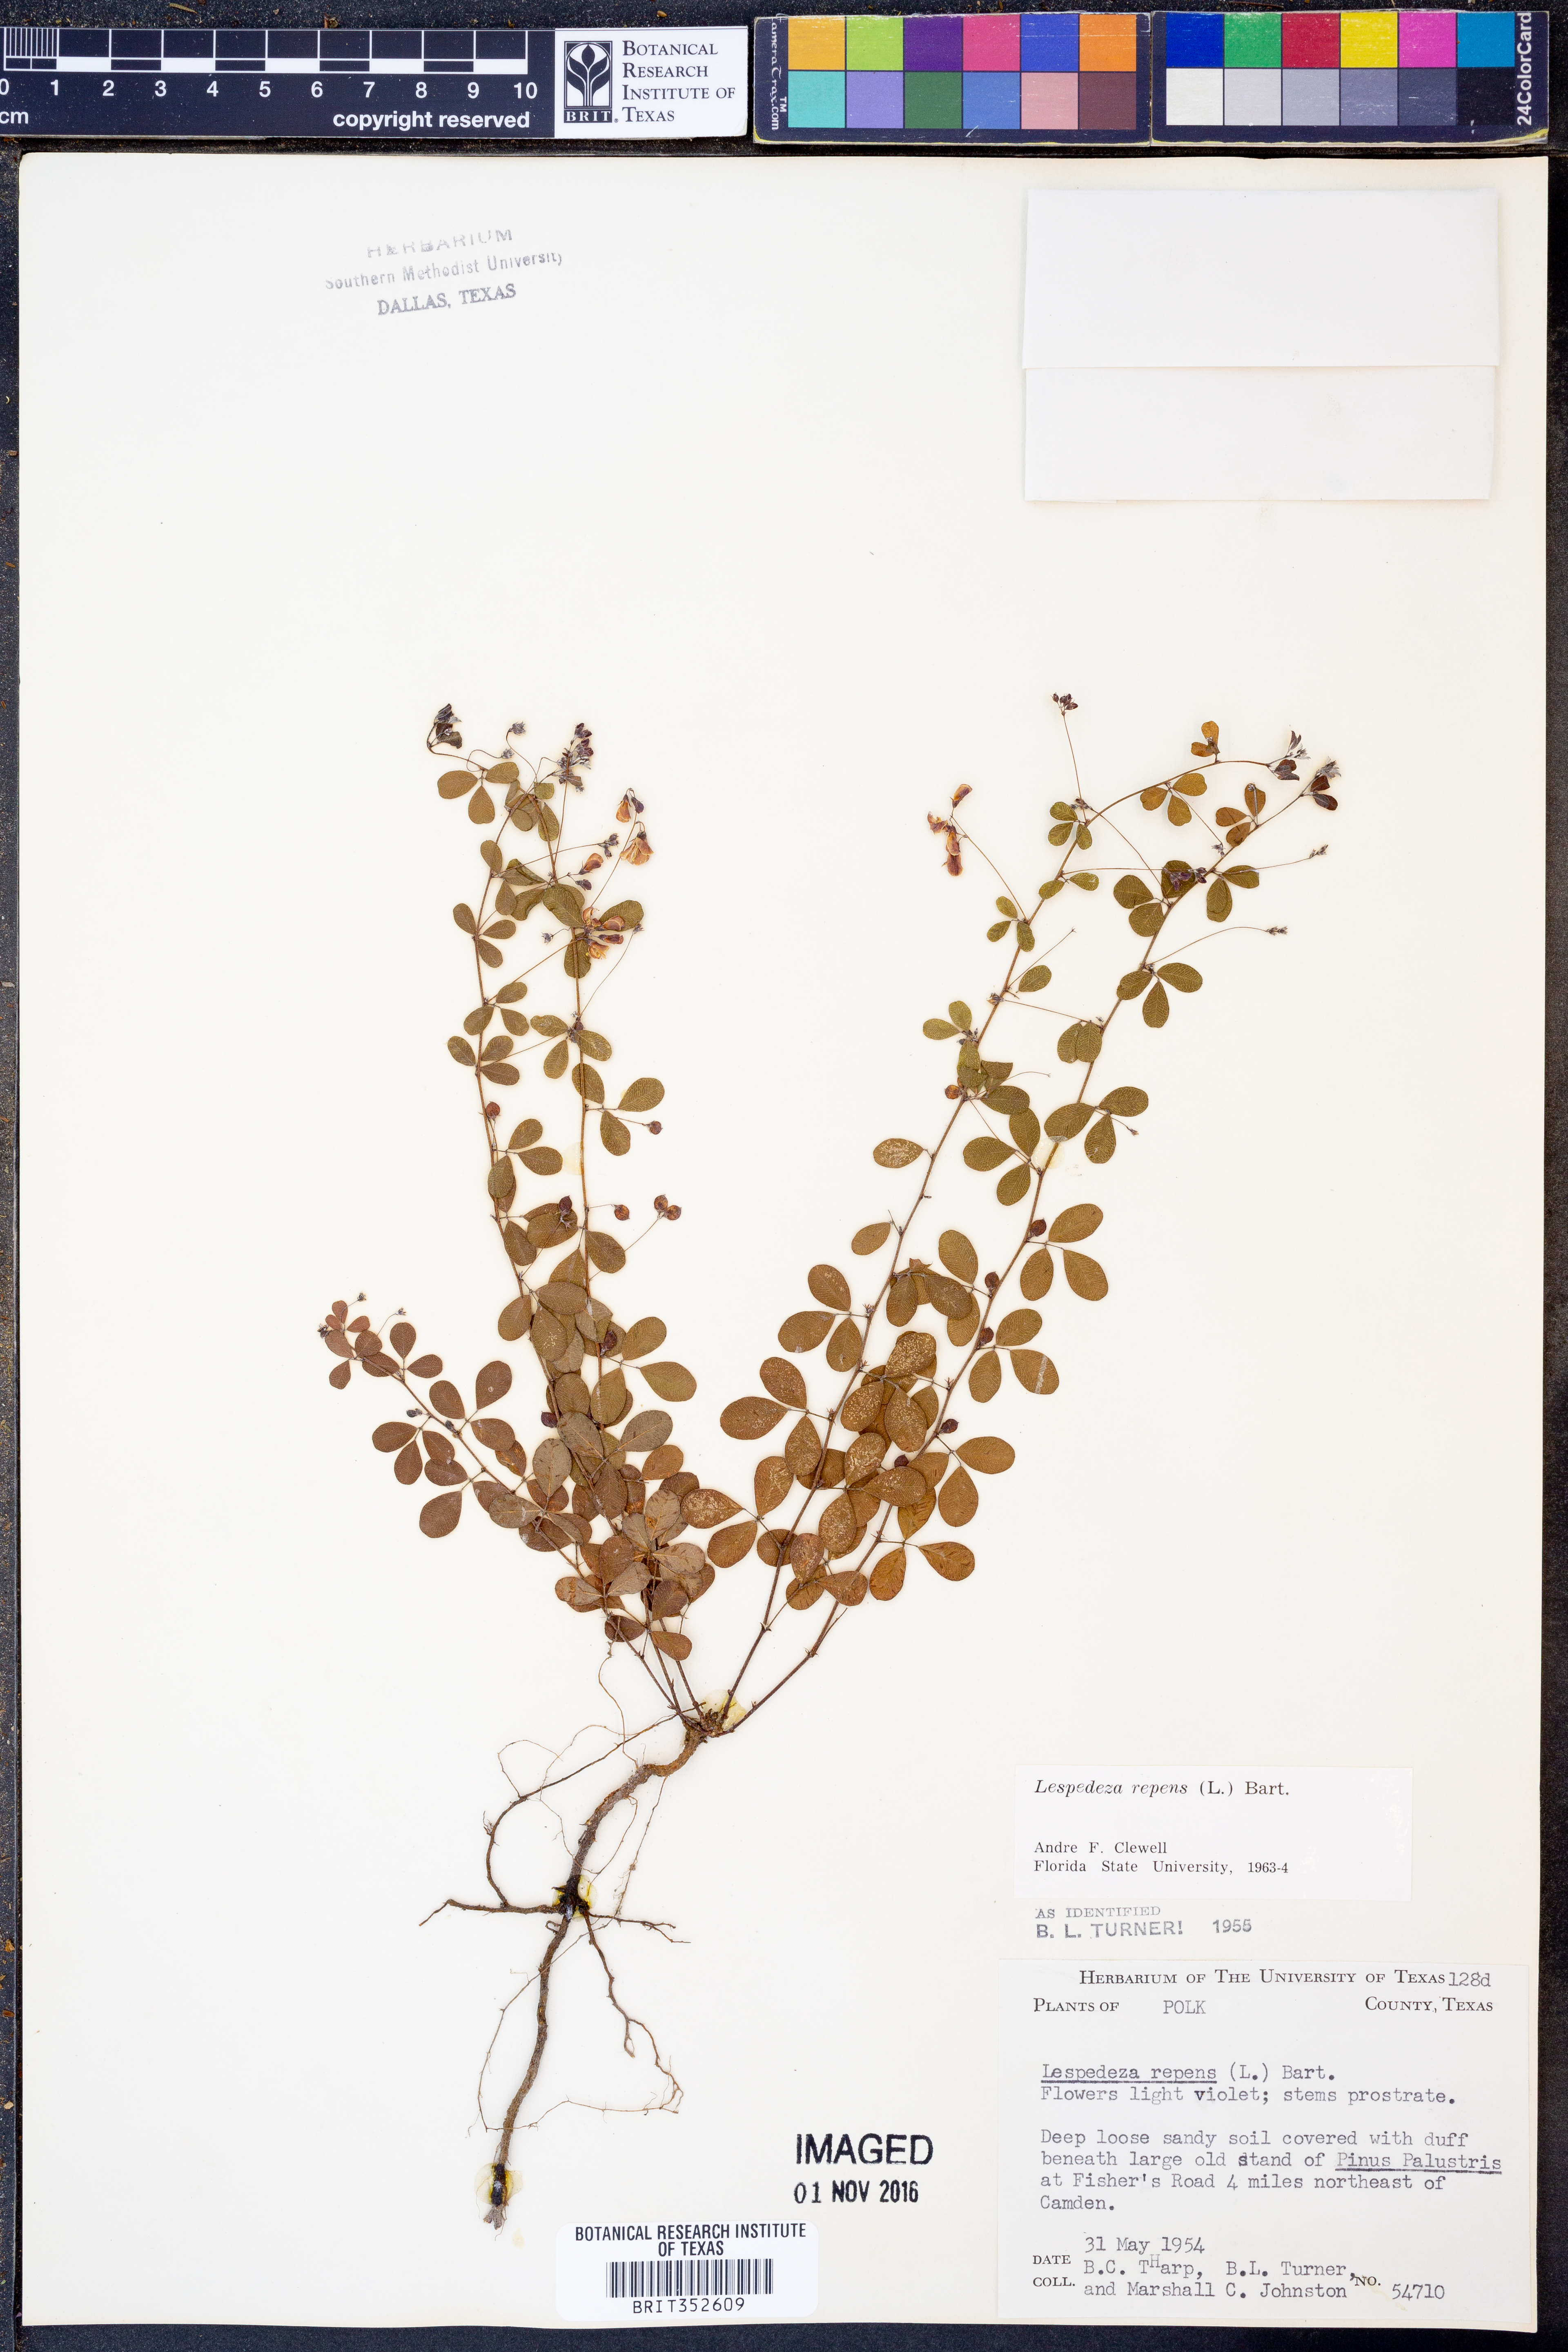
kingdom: Plantae
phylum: Tracheophyta
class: Magnoliopsida
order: Fabales
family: Fabaceae
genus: Lespedeza
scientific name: Lespedeza repens
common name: Creeping bush-clover
